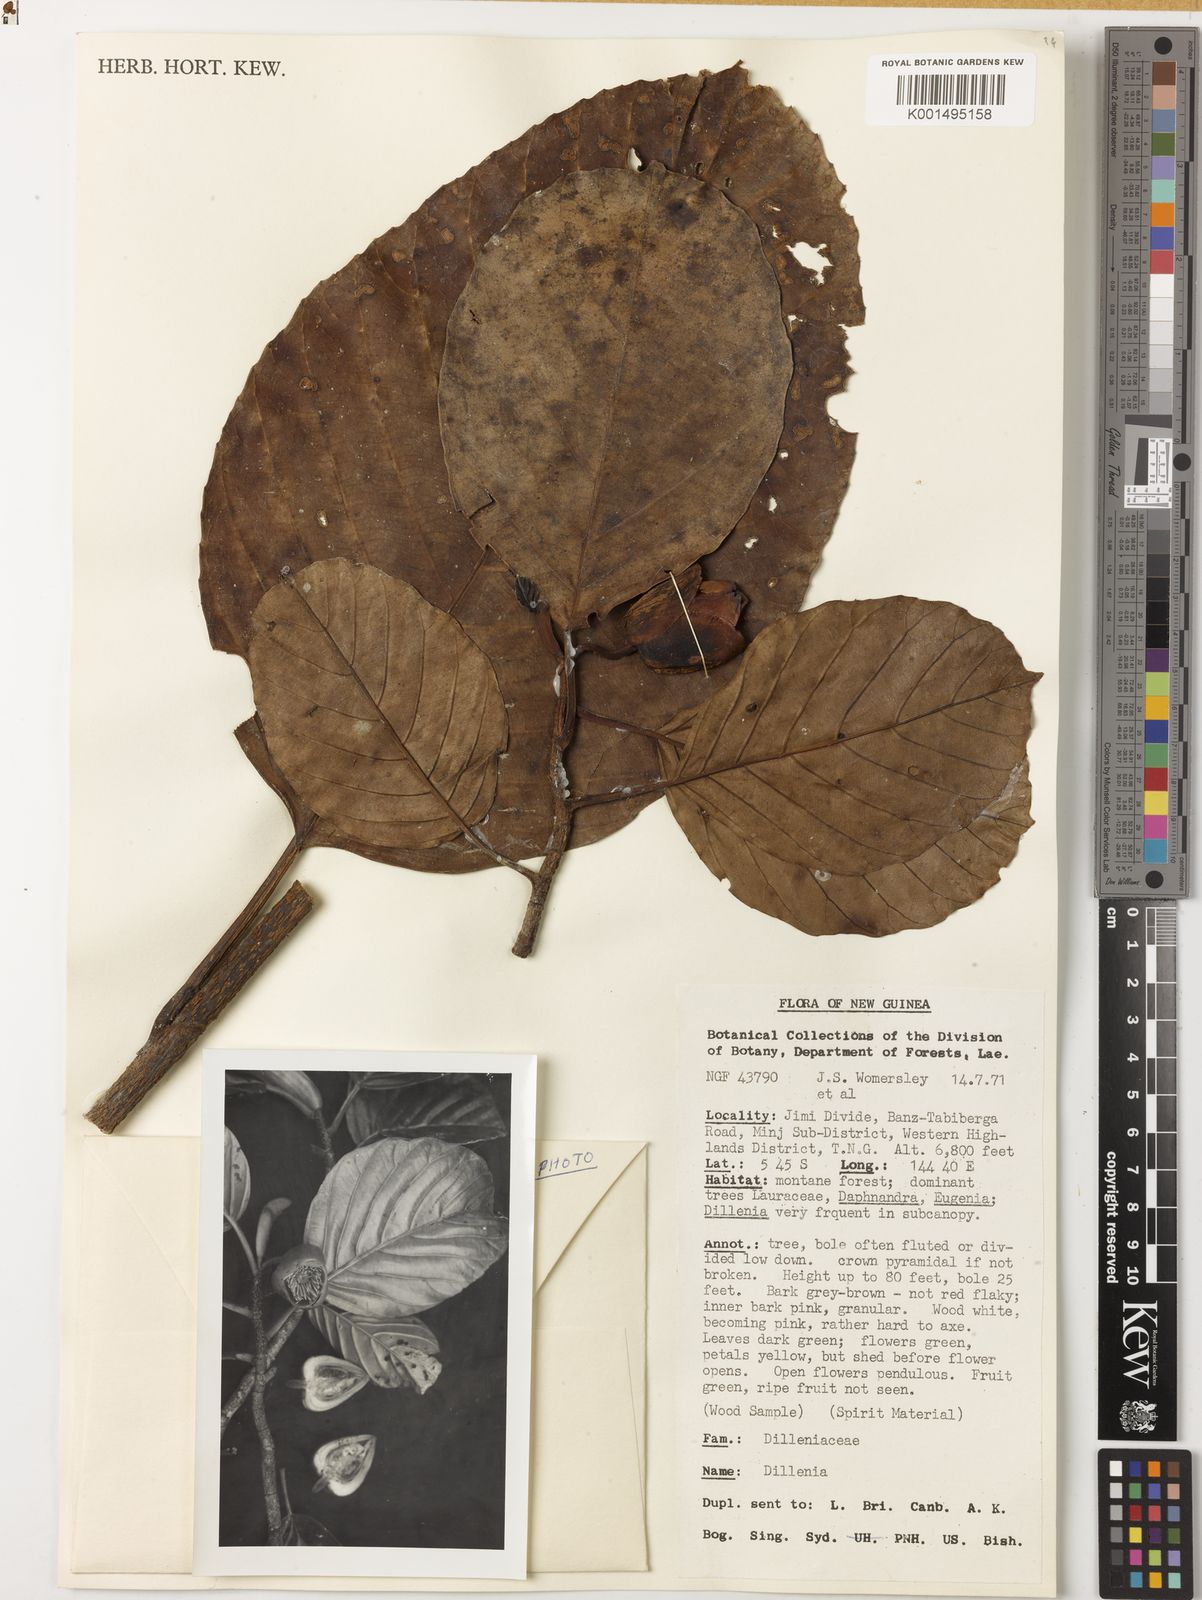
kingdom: Plantae
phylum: Tracheophyta
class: Magnoliopsida
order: Dilleniales
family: Dilleniaceae
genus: Dillenia
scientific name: Dillenia
